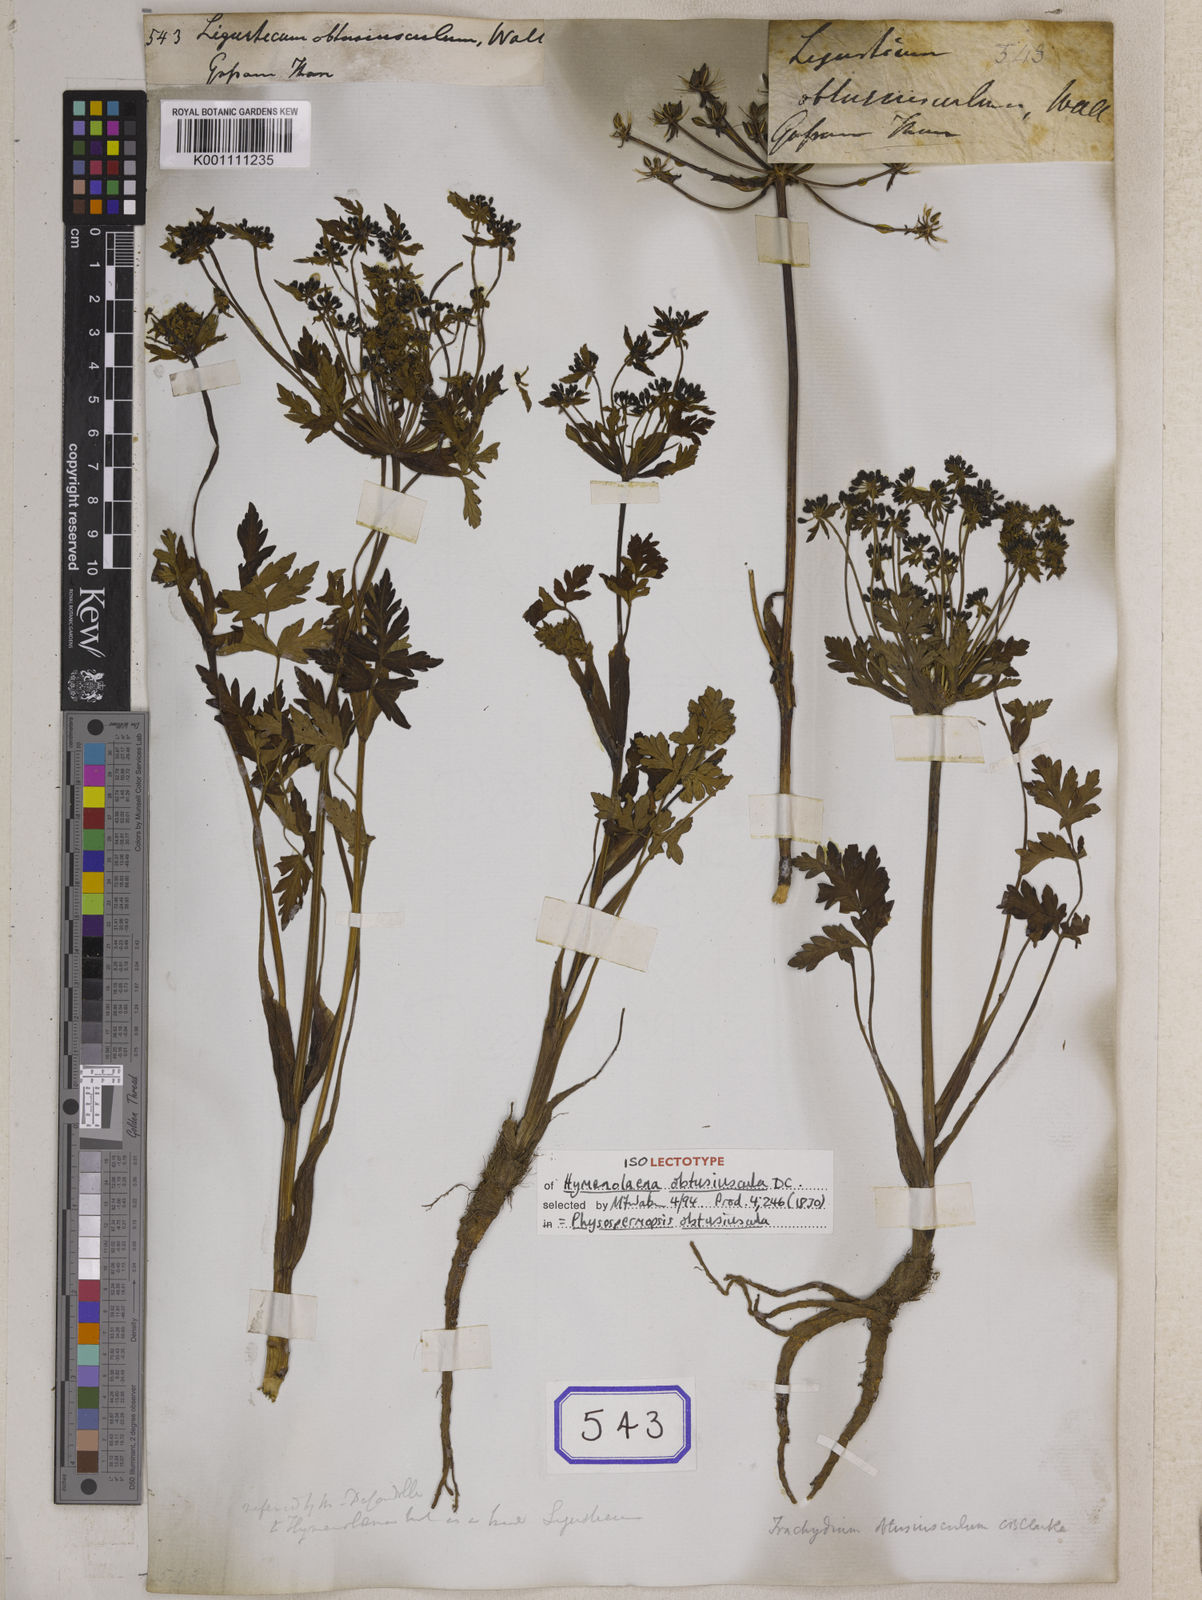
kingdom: Plantae
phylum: Tracheophyta
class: Magnoliopsida
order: Apiales
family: Apiaceae
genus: Physospermopsis
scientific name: Physospermopsis obtusiuscula
